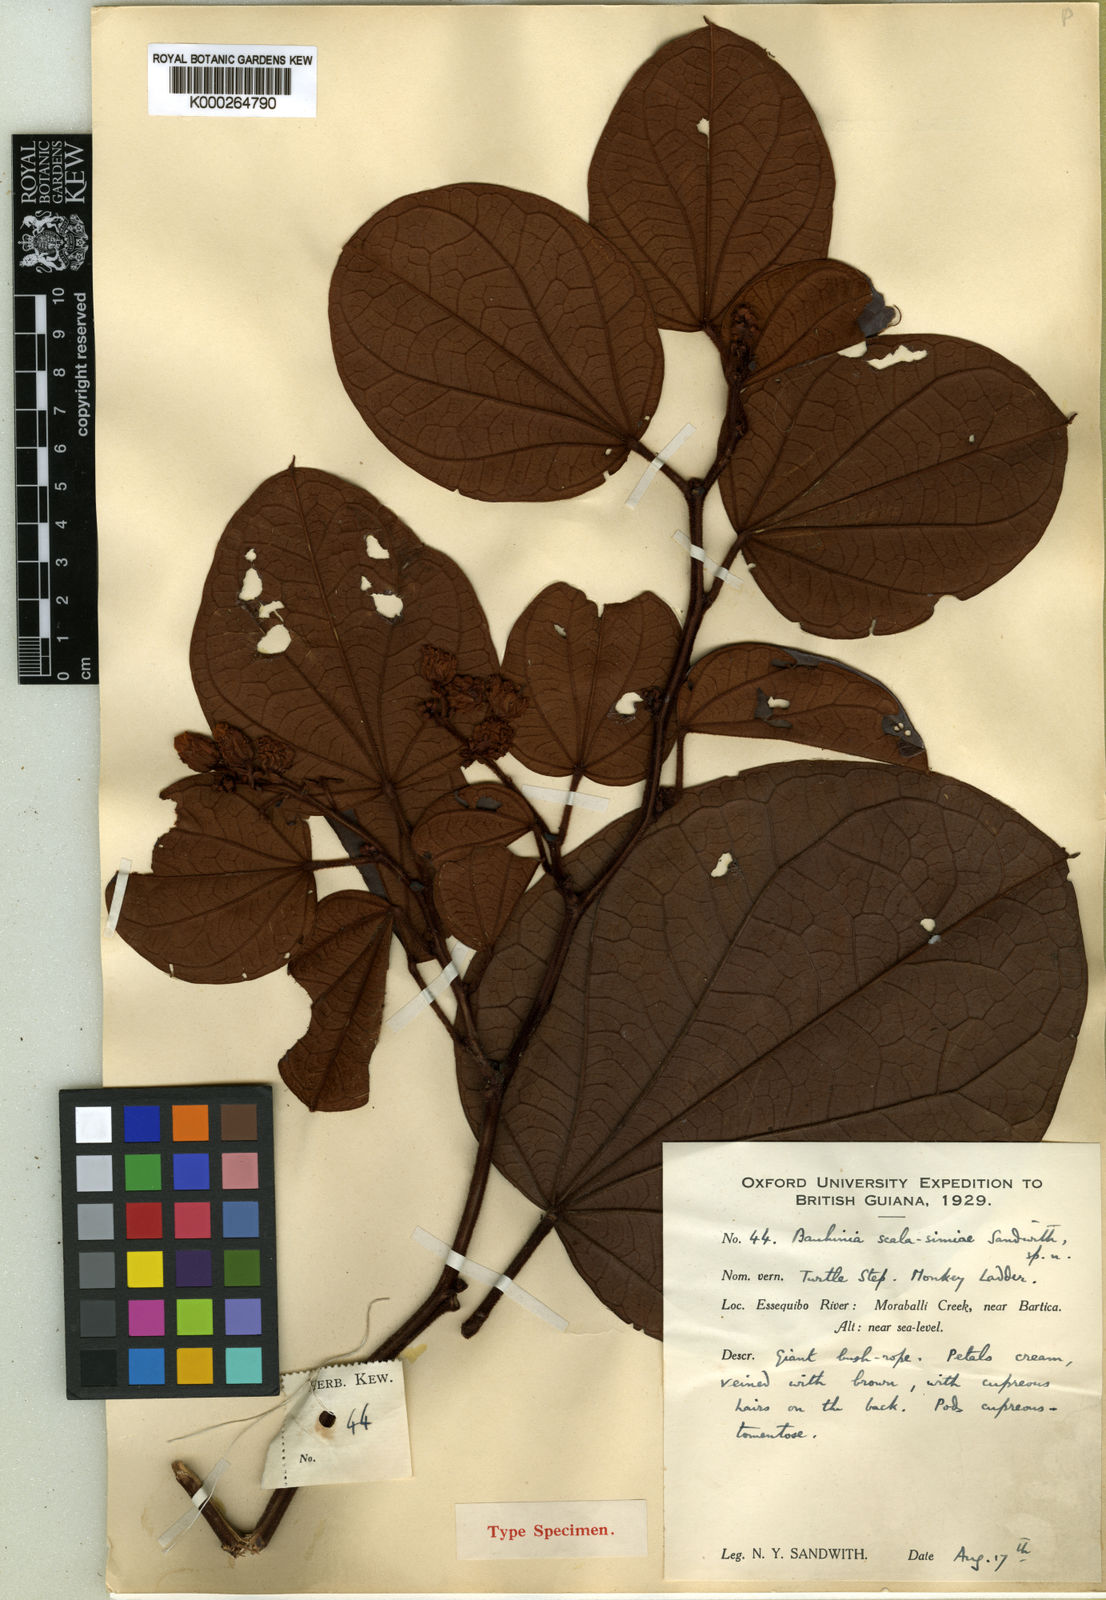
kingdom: Plantae
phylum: Tracheophyta
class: Magnoliopsida
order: Fabales
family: Fabaceae
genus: Schnella
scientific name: Schnella scala-simiae
